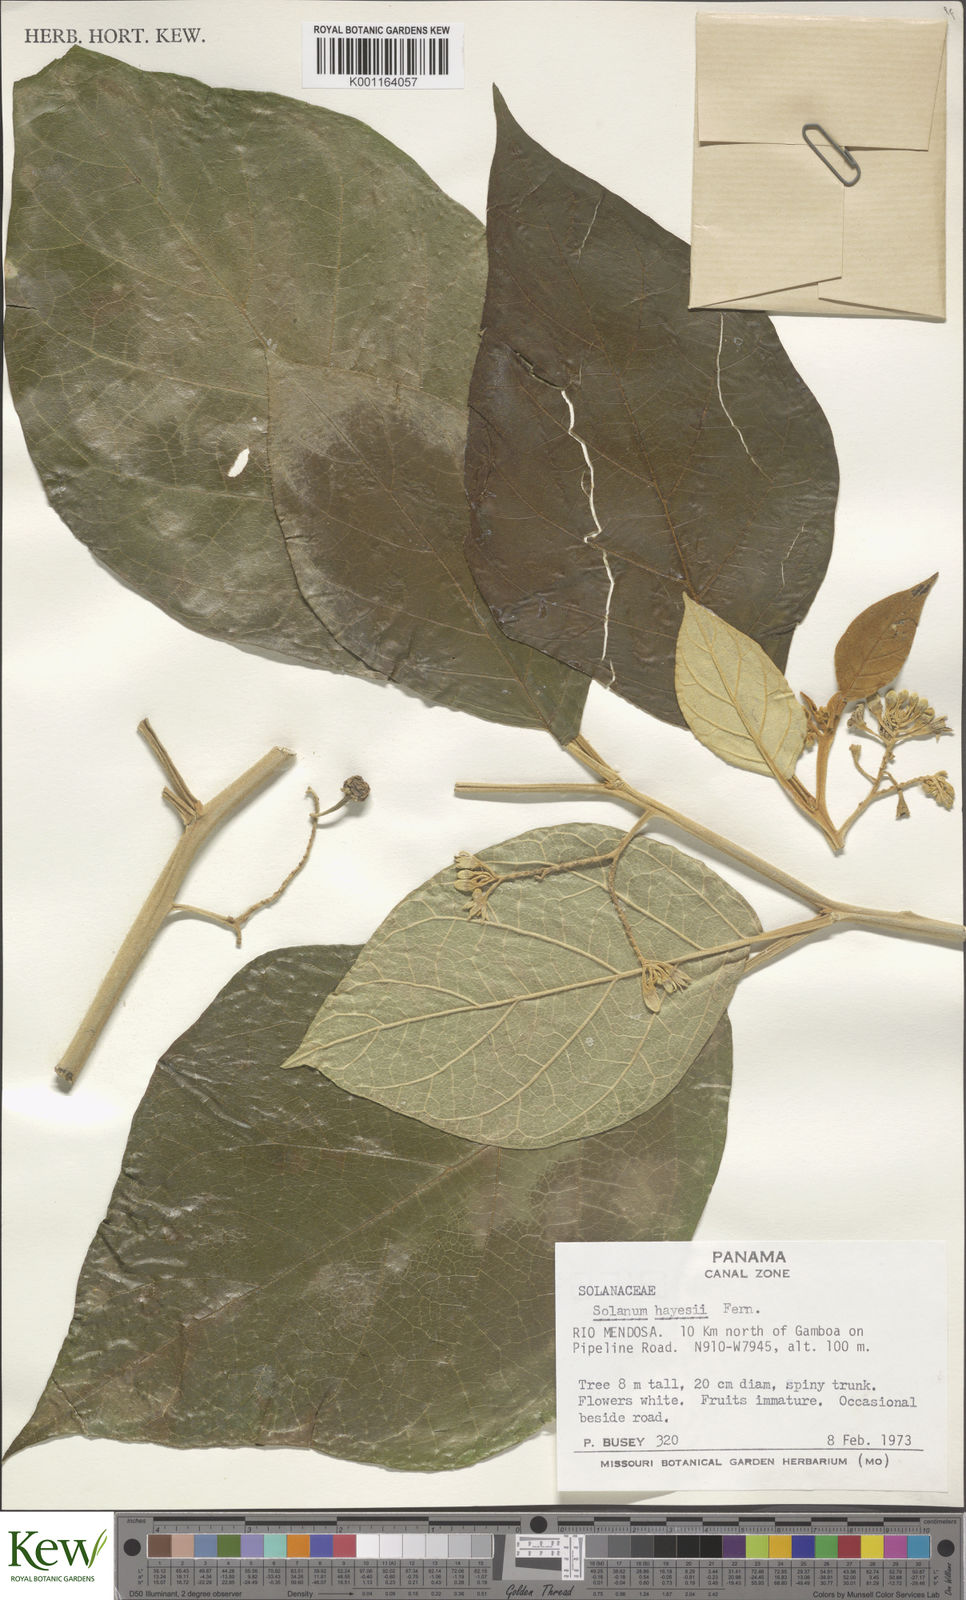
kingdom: Plantae
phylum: Tracheophyta
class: Magnoliopsida
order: Solanales
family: Solanaceae
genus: Solanum
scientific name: Solanum hayesii
